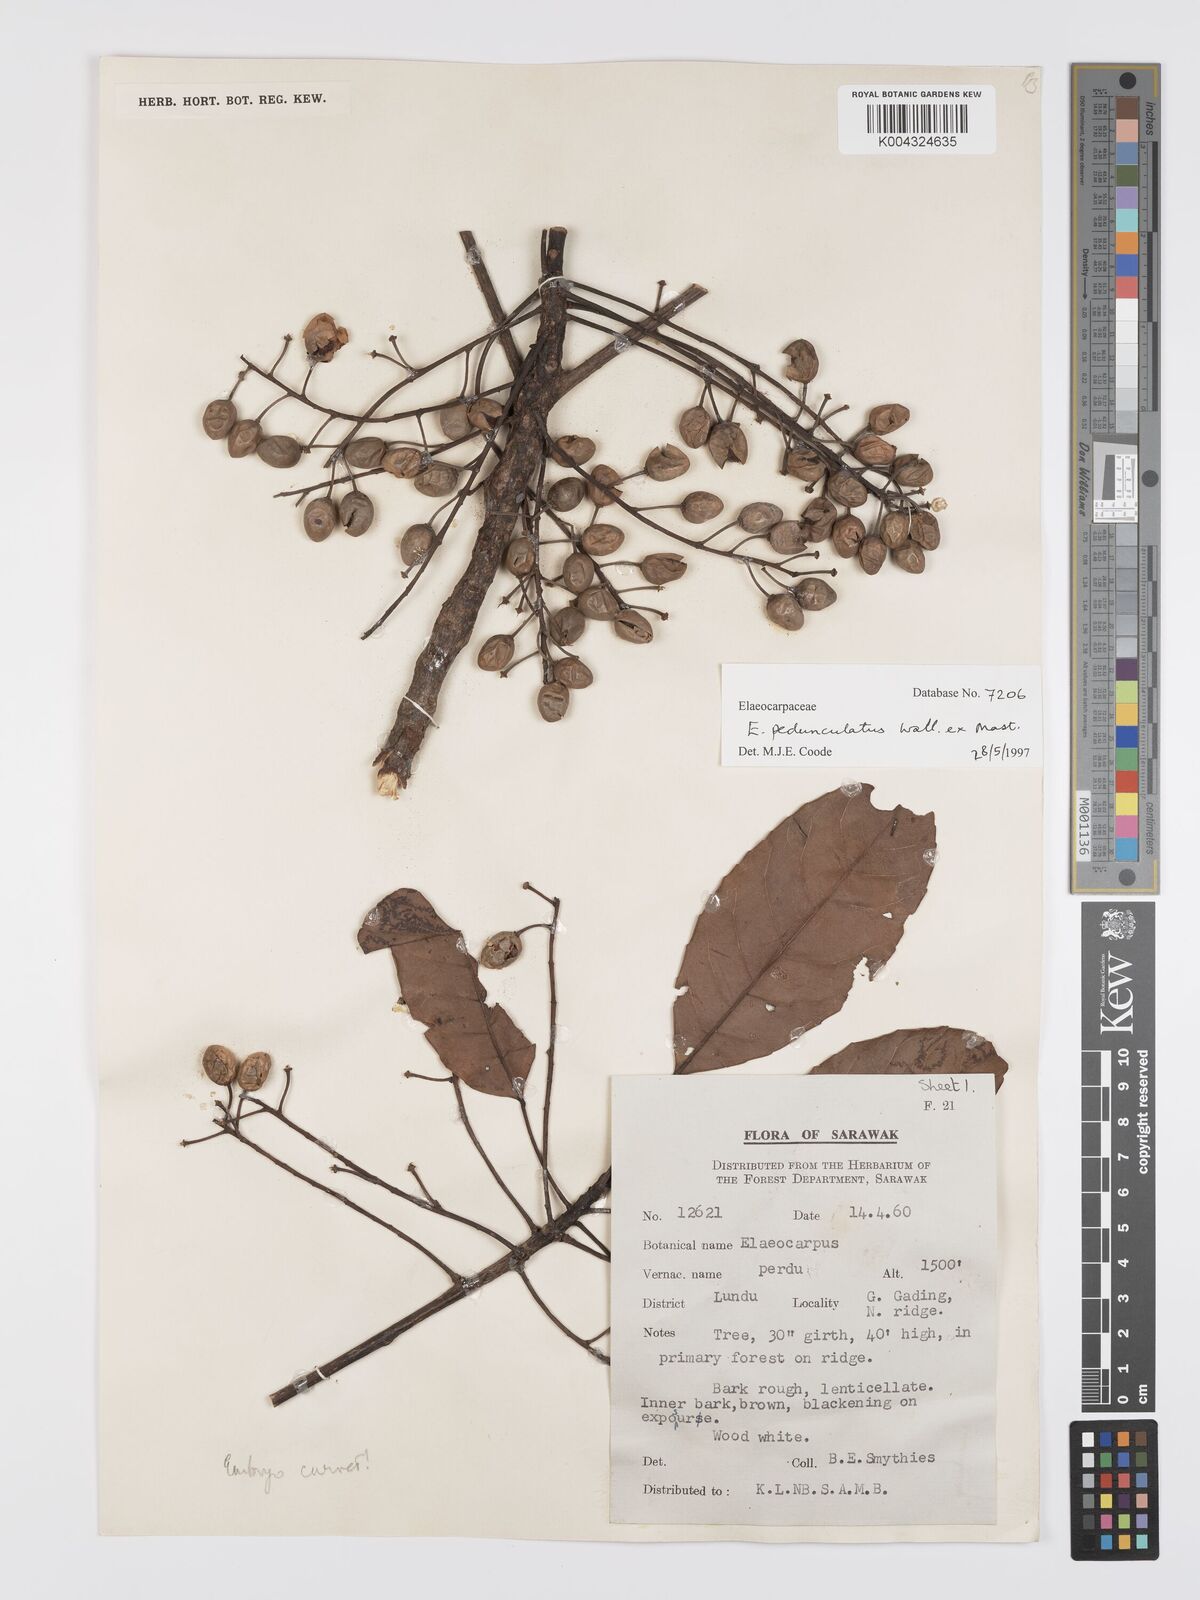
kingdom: Plantae
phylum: Tracheophyta
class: Magnoliopsida
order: Oxalidales
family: Elaeocarpaceae
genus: Elaeocarpus
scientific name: Elaeocarpus pedunculatus
